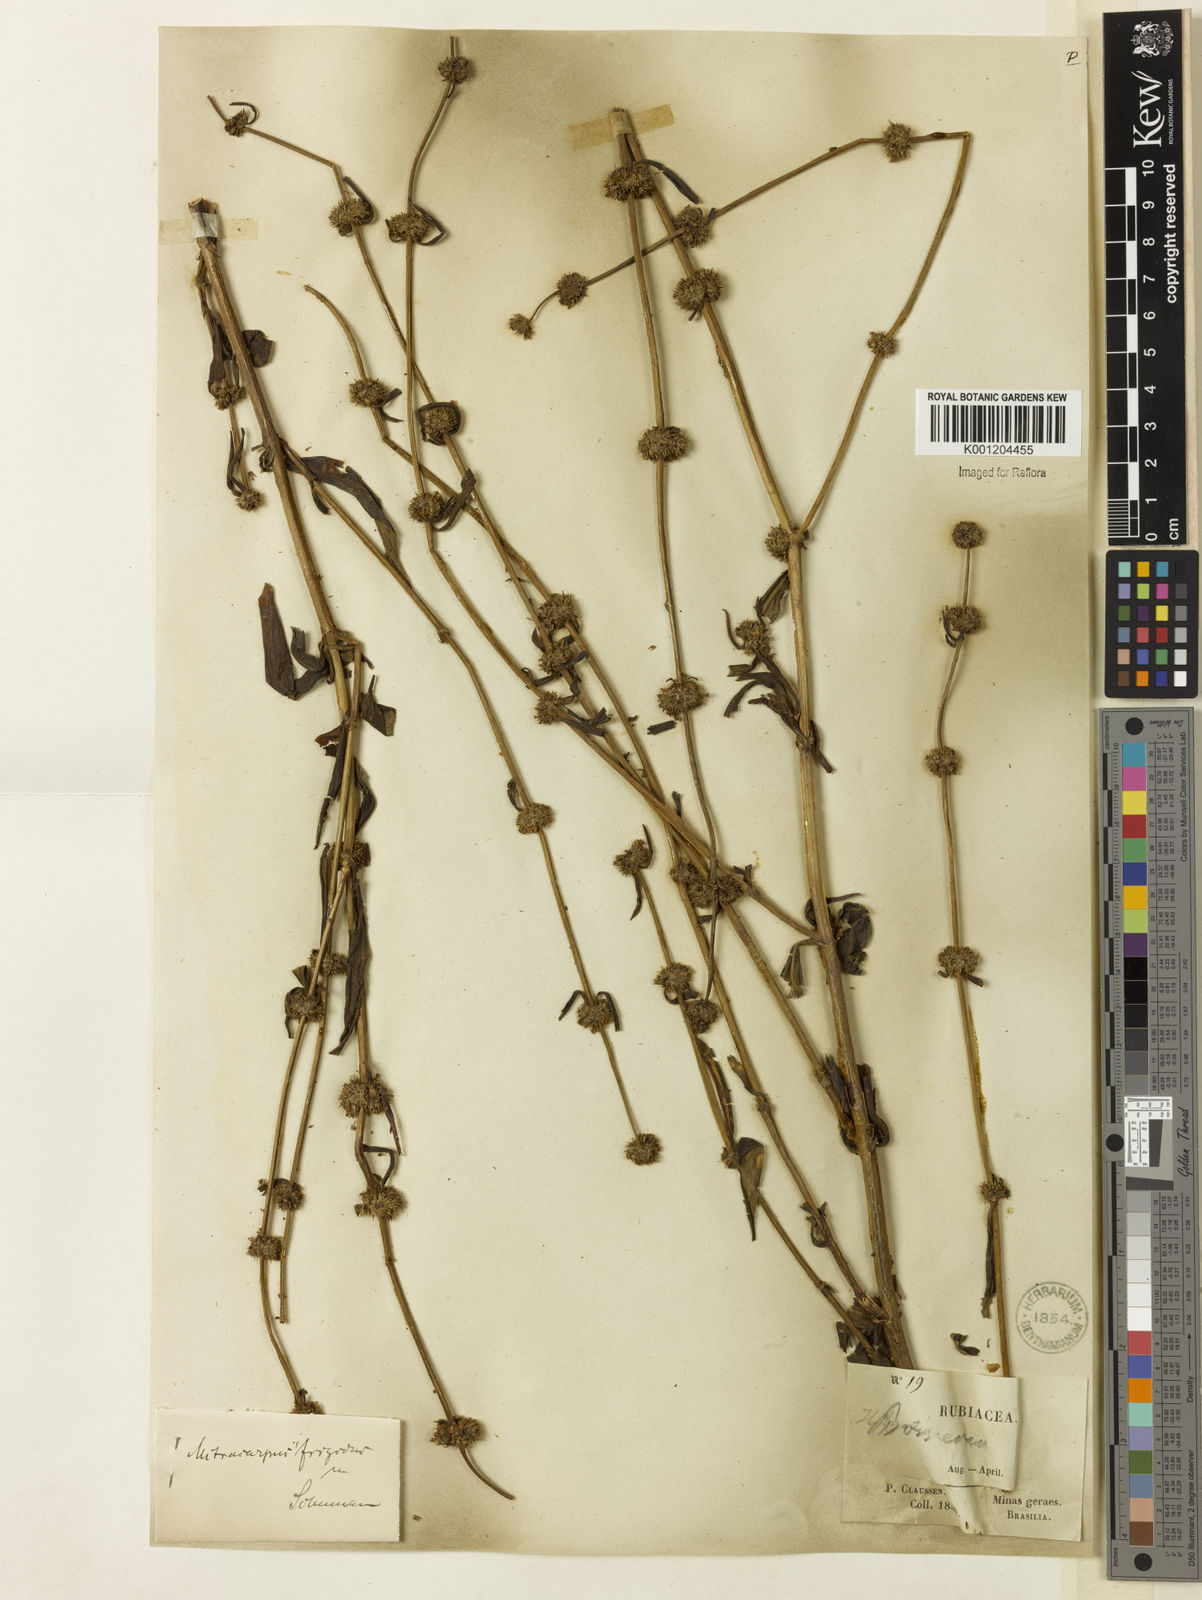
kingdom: Plantae
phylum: Tracheophyta
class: Magnoliopsida
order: Gentianales
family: Rubiaceae
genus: Mitracarpus
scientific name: Mitracarpus frigidus
